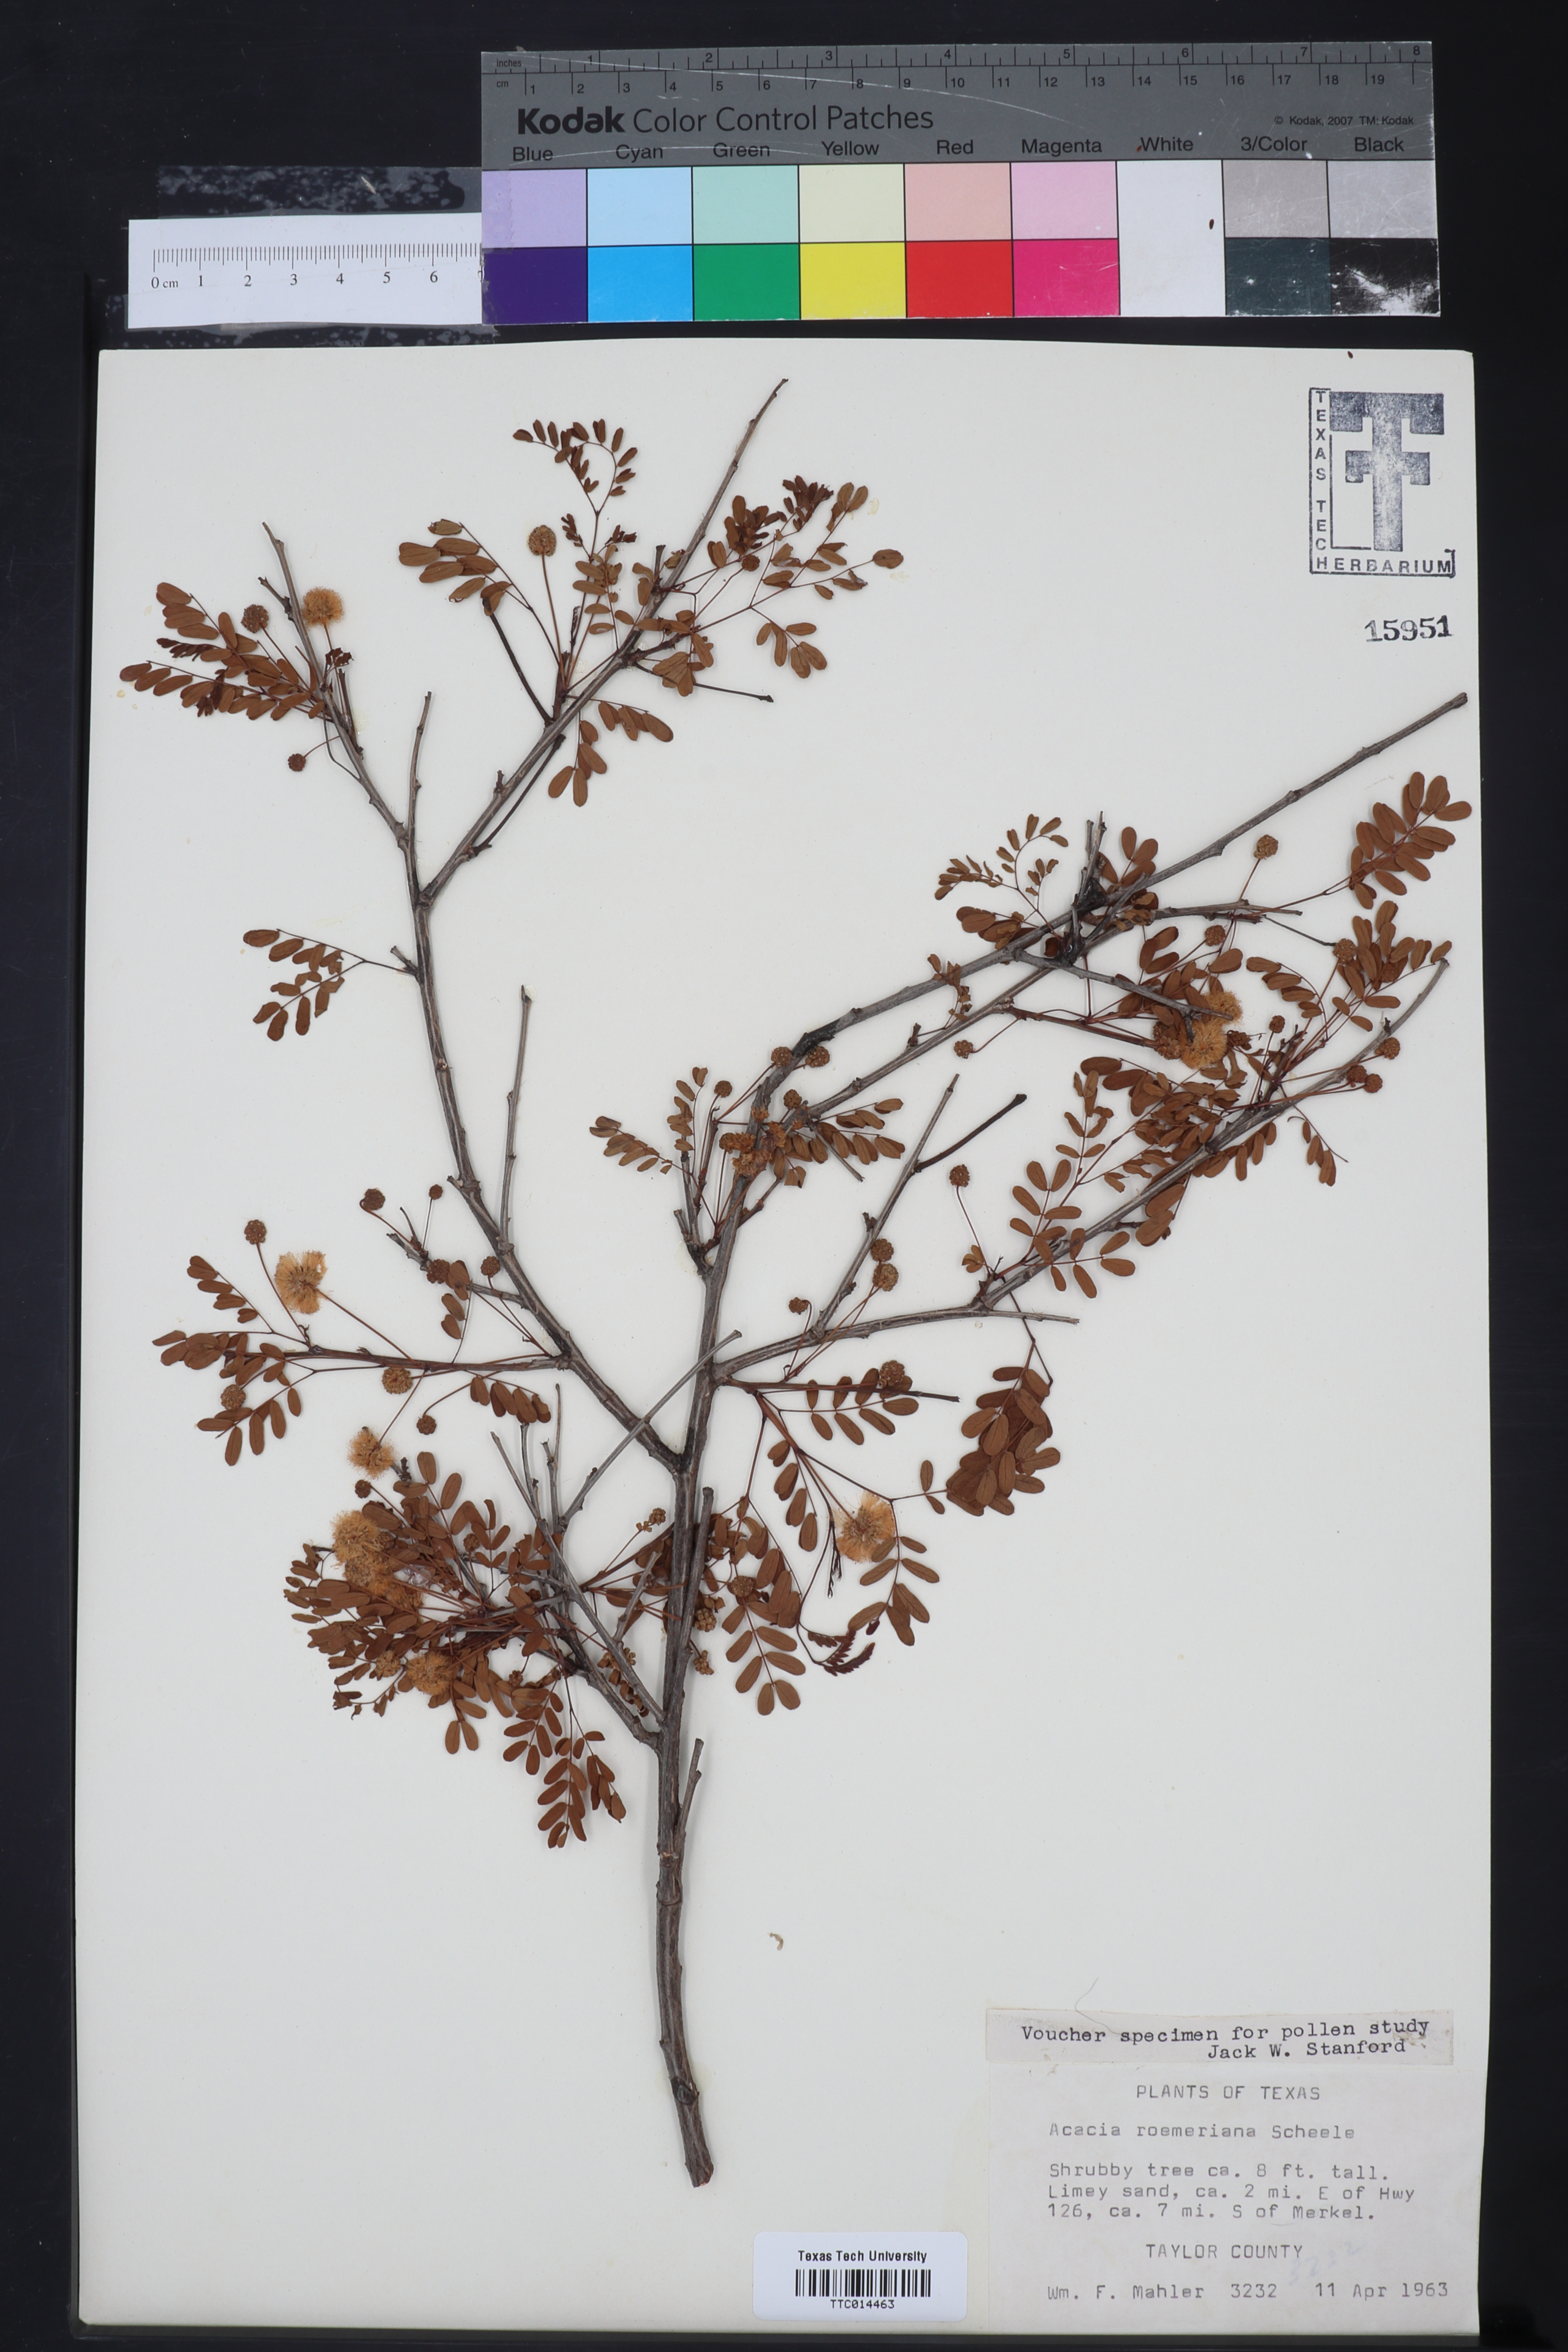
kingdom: Plantae
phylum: Tracheophyta
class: Magnoliopsida
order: Fabales
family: Fabaceae
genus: Senegalia
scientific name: Senegalia roemeriana
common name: Roemer's acacia
